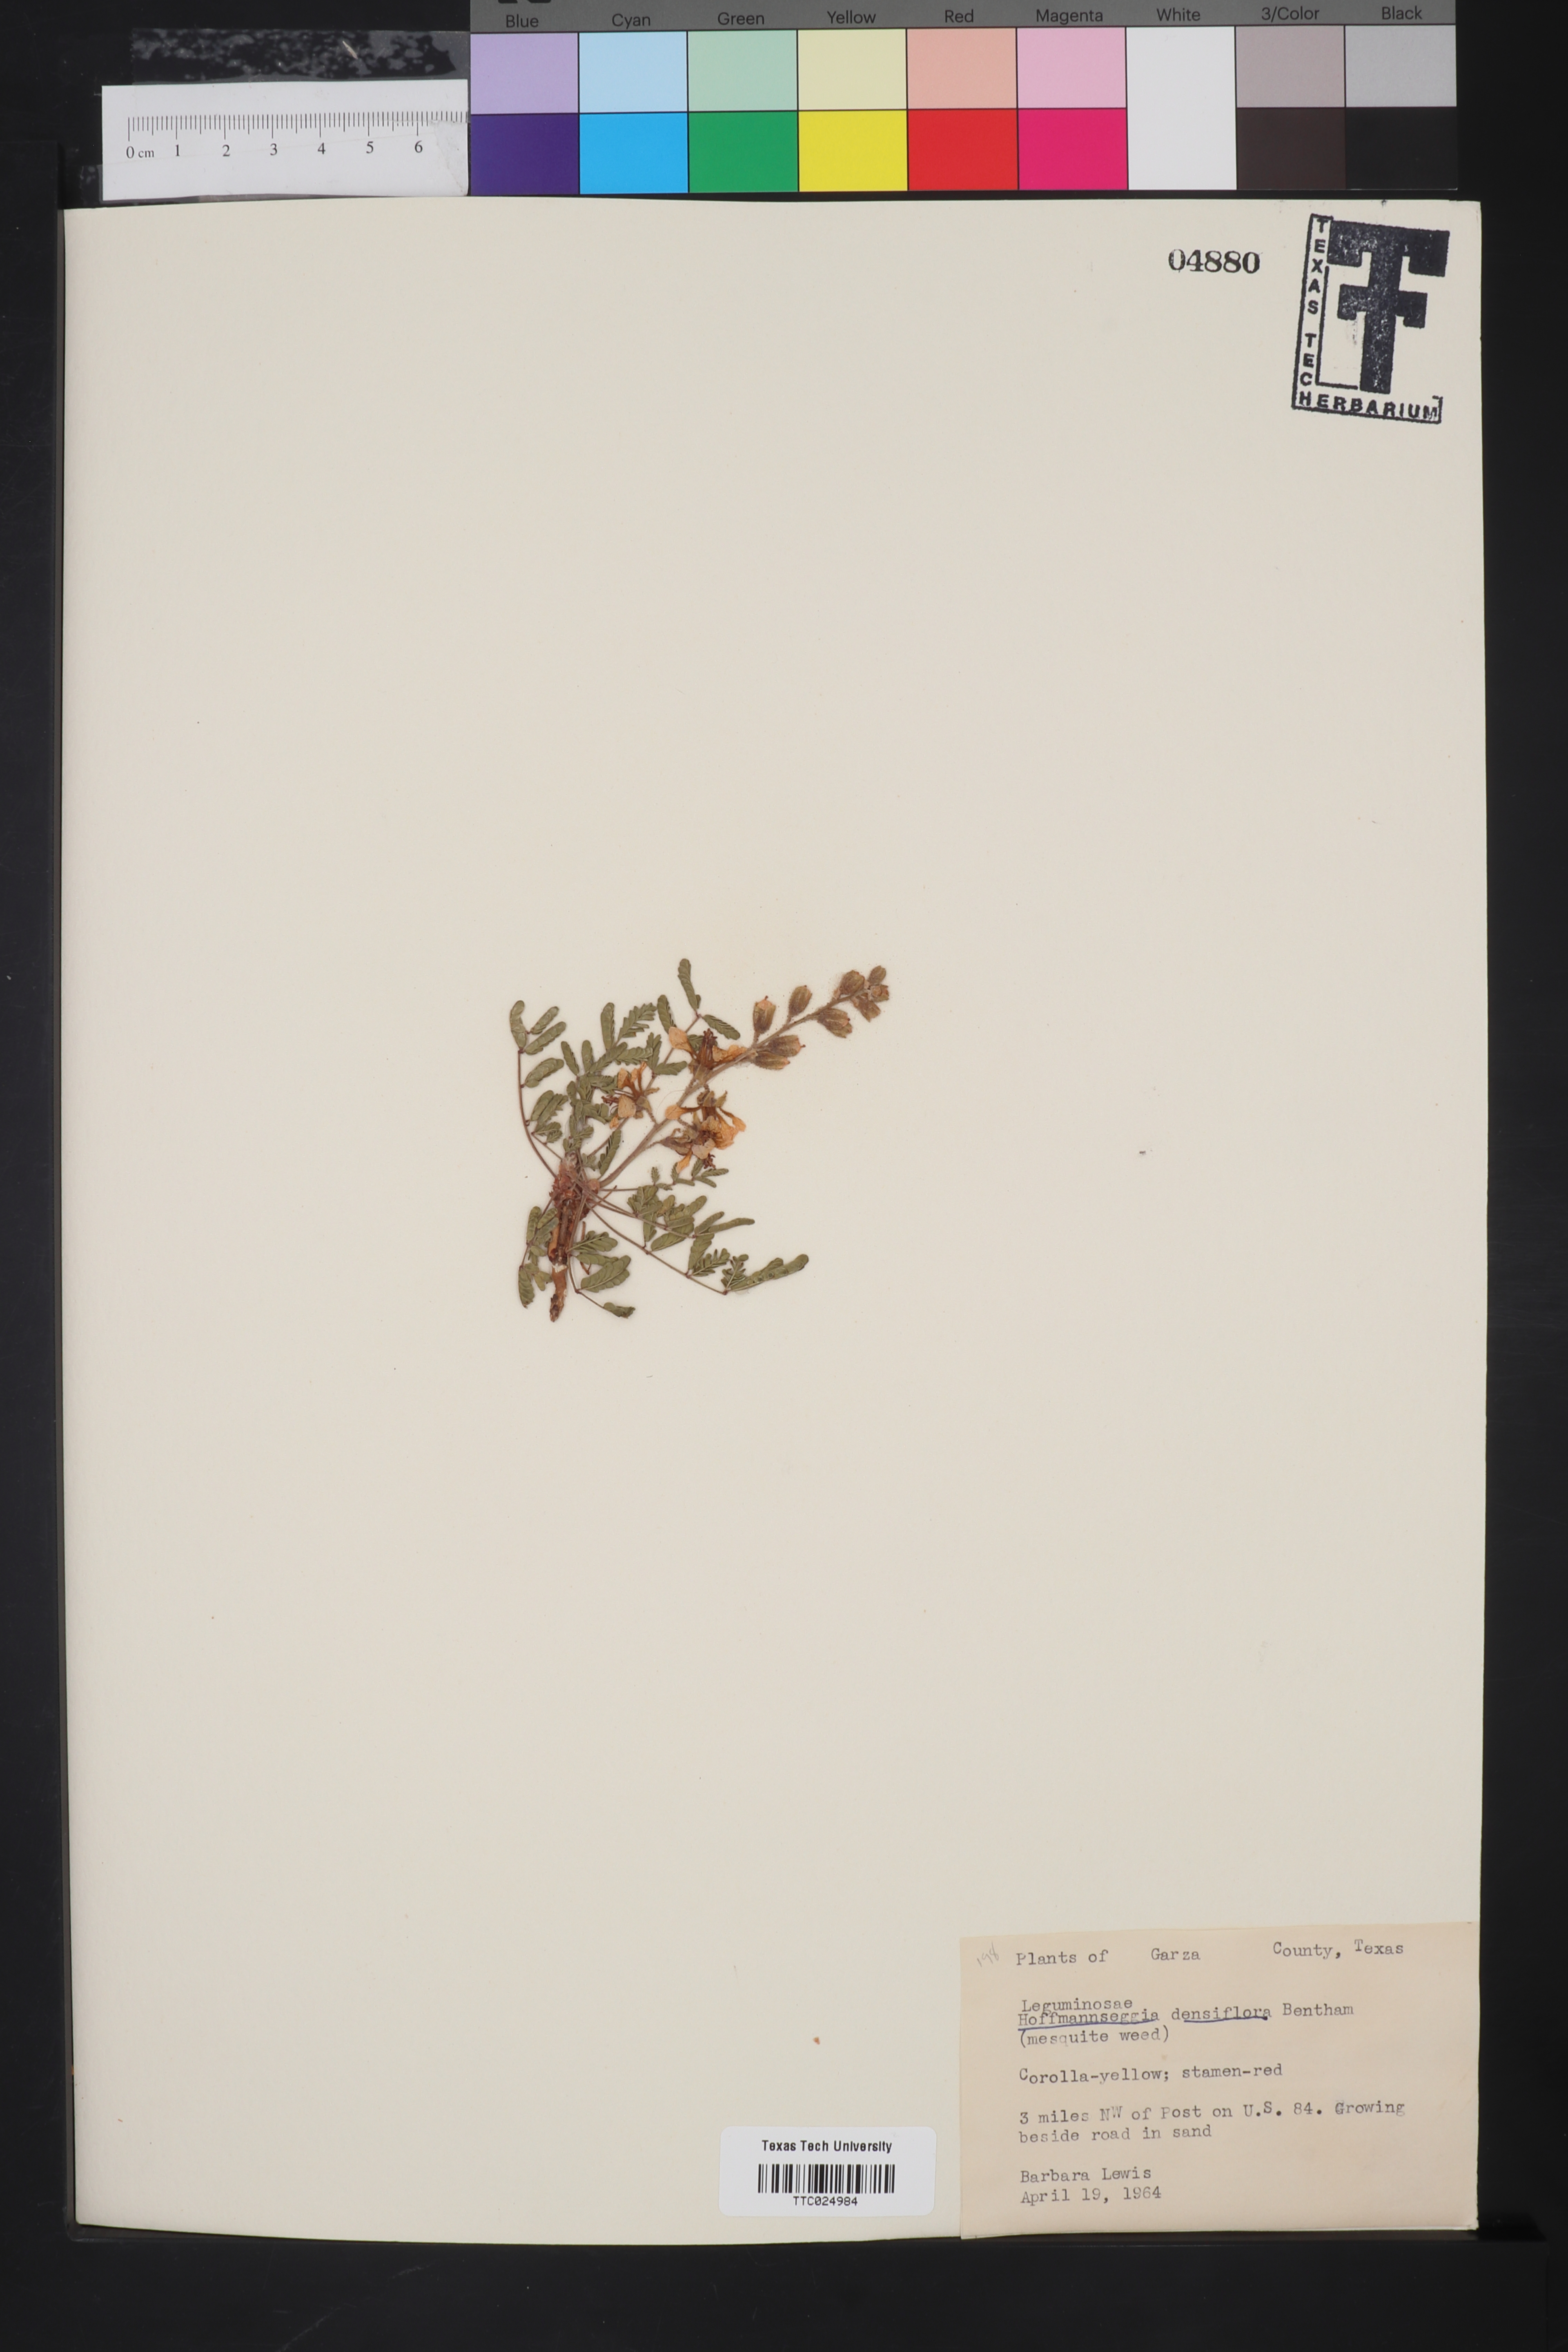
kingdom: Plantae
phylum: Tracheophyta
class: Magnoliopsida
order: Fabales
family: Fabaceae
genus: Hoffmannseggia
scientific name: Hoffmannseggia glauca
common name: Pignut
